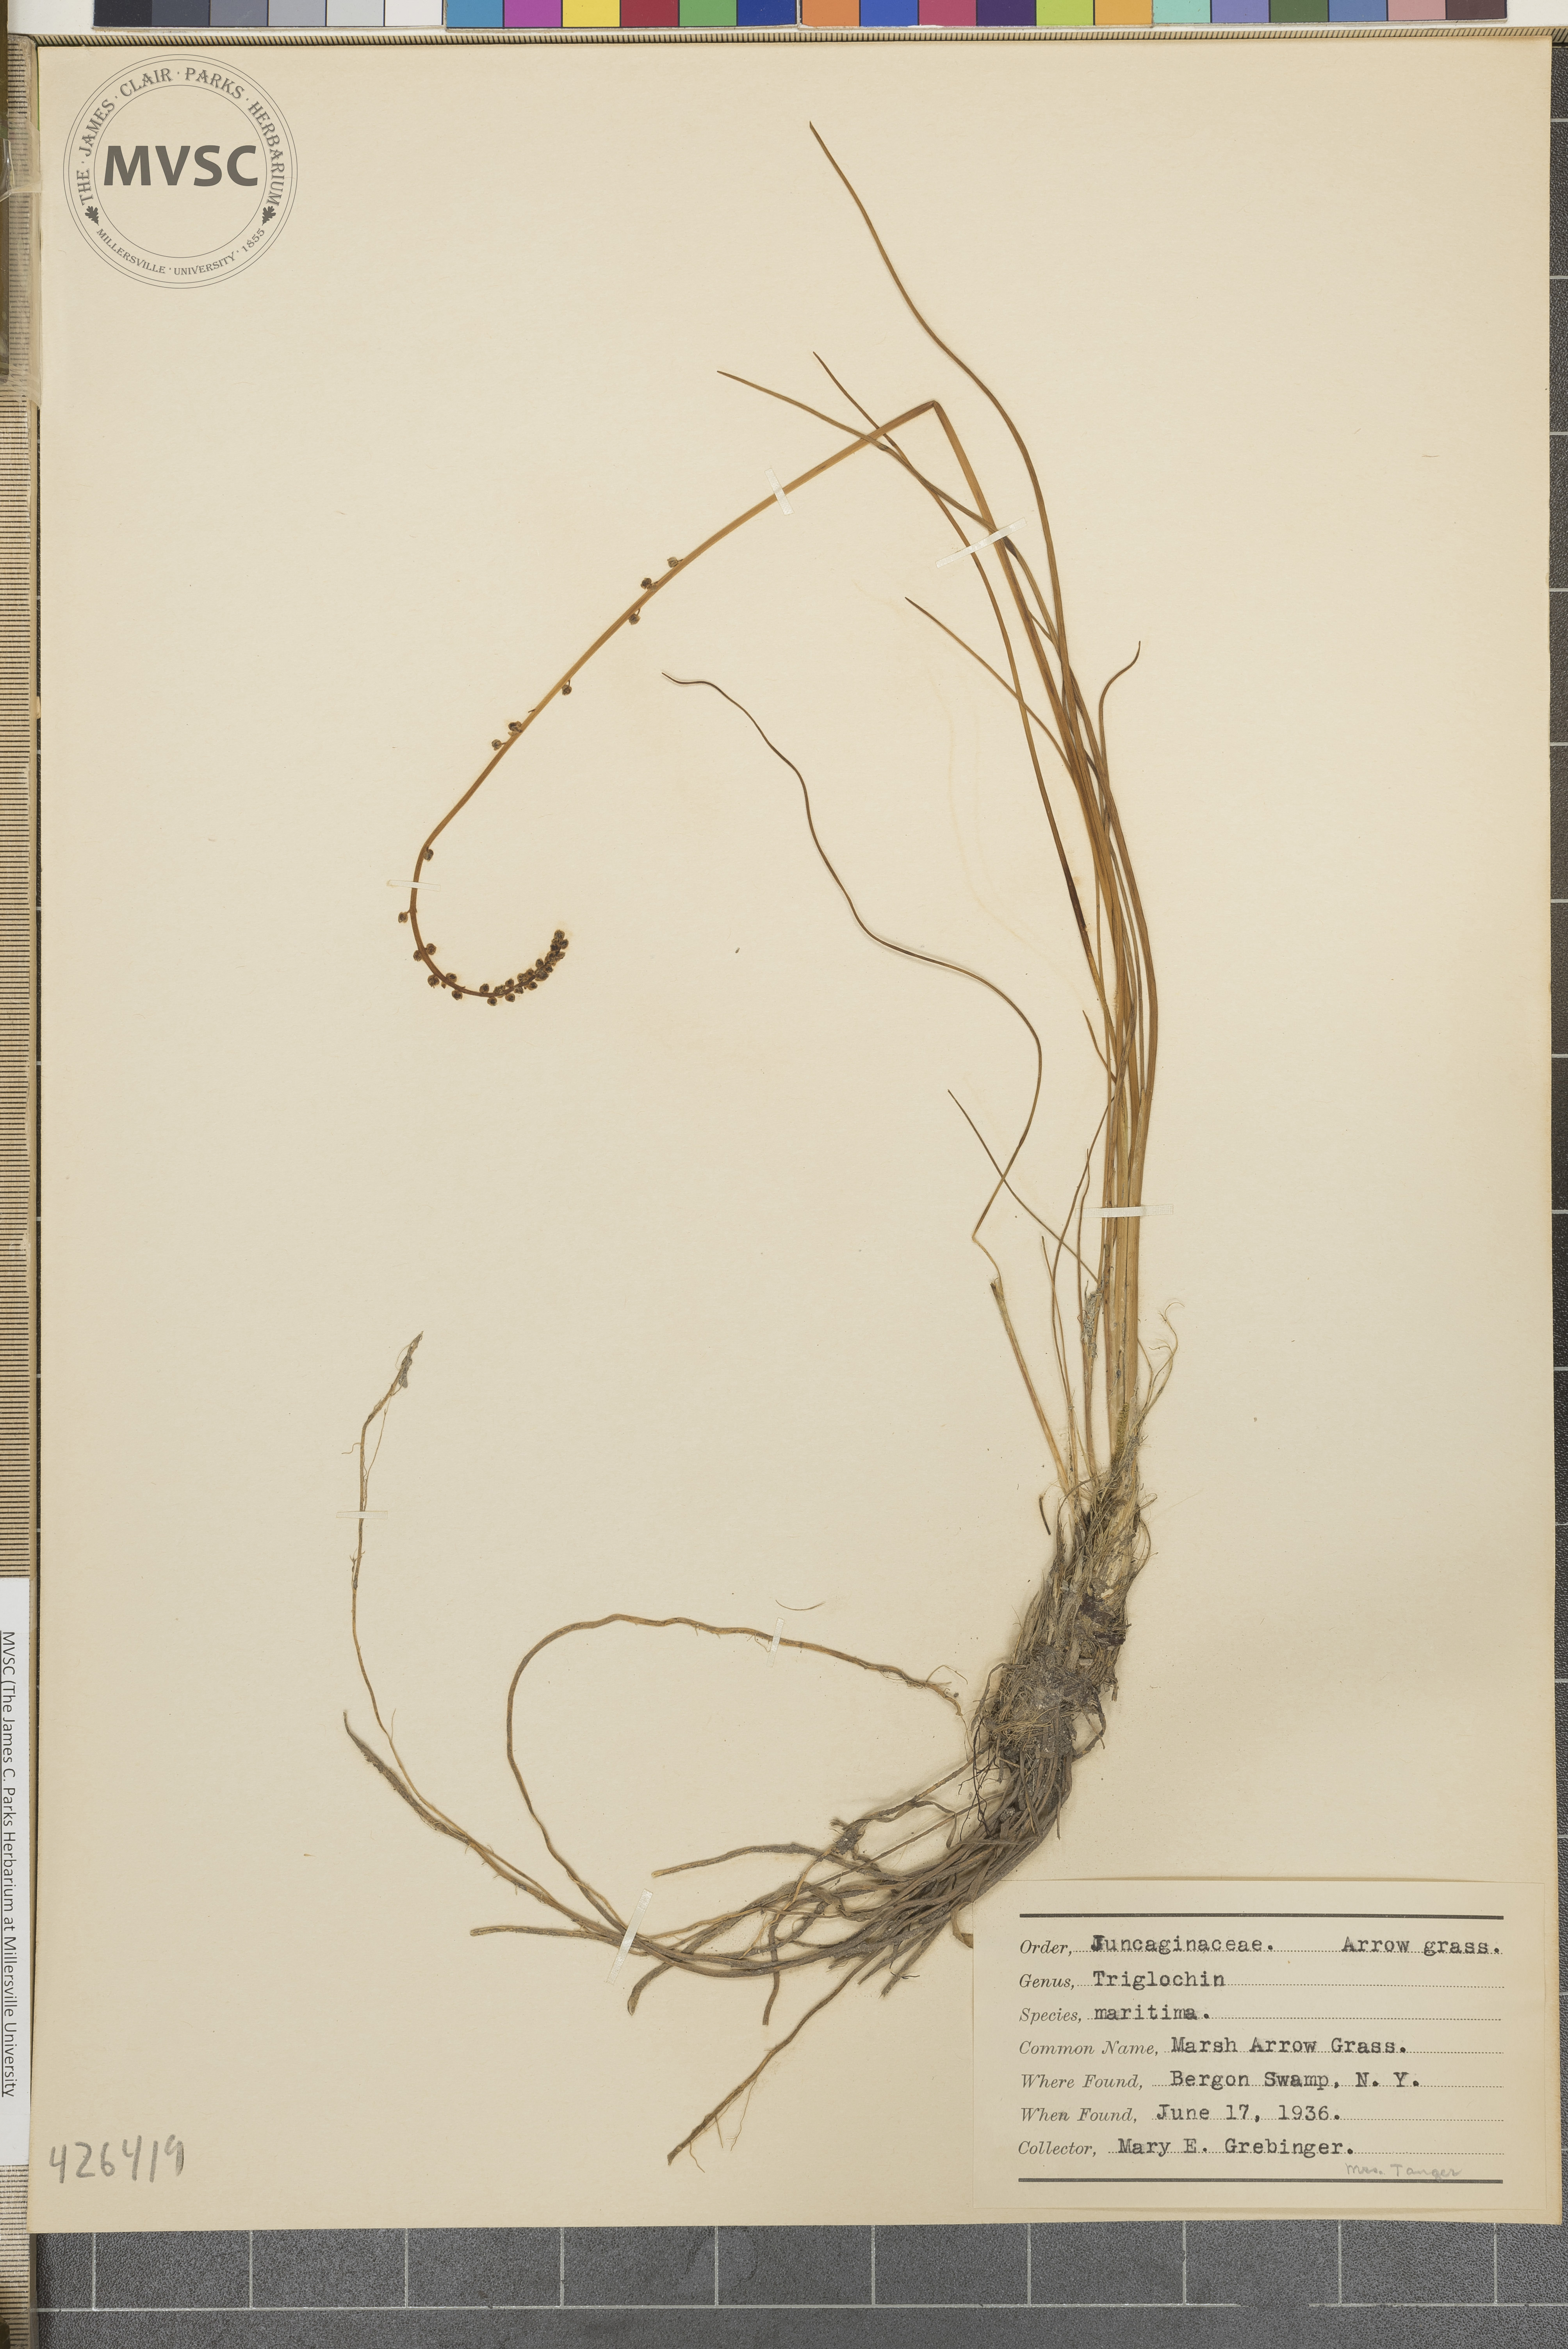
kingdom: Plantae
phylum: Tracheophyta
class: Liliopsida
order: Alismatales
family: Juncaginaceae
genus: Triglochin
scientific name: Triglochin maritima
